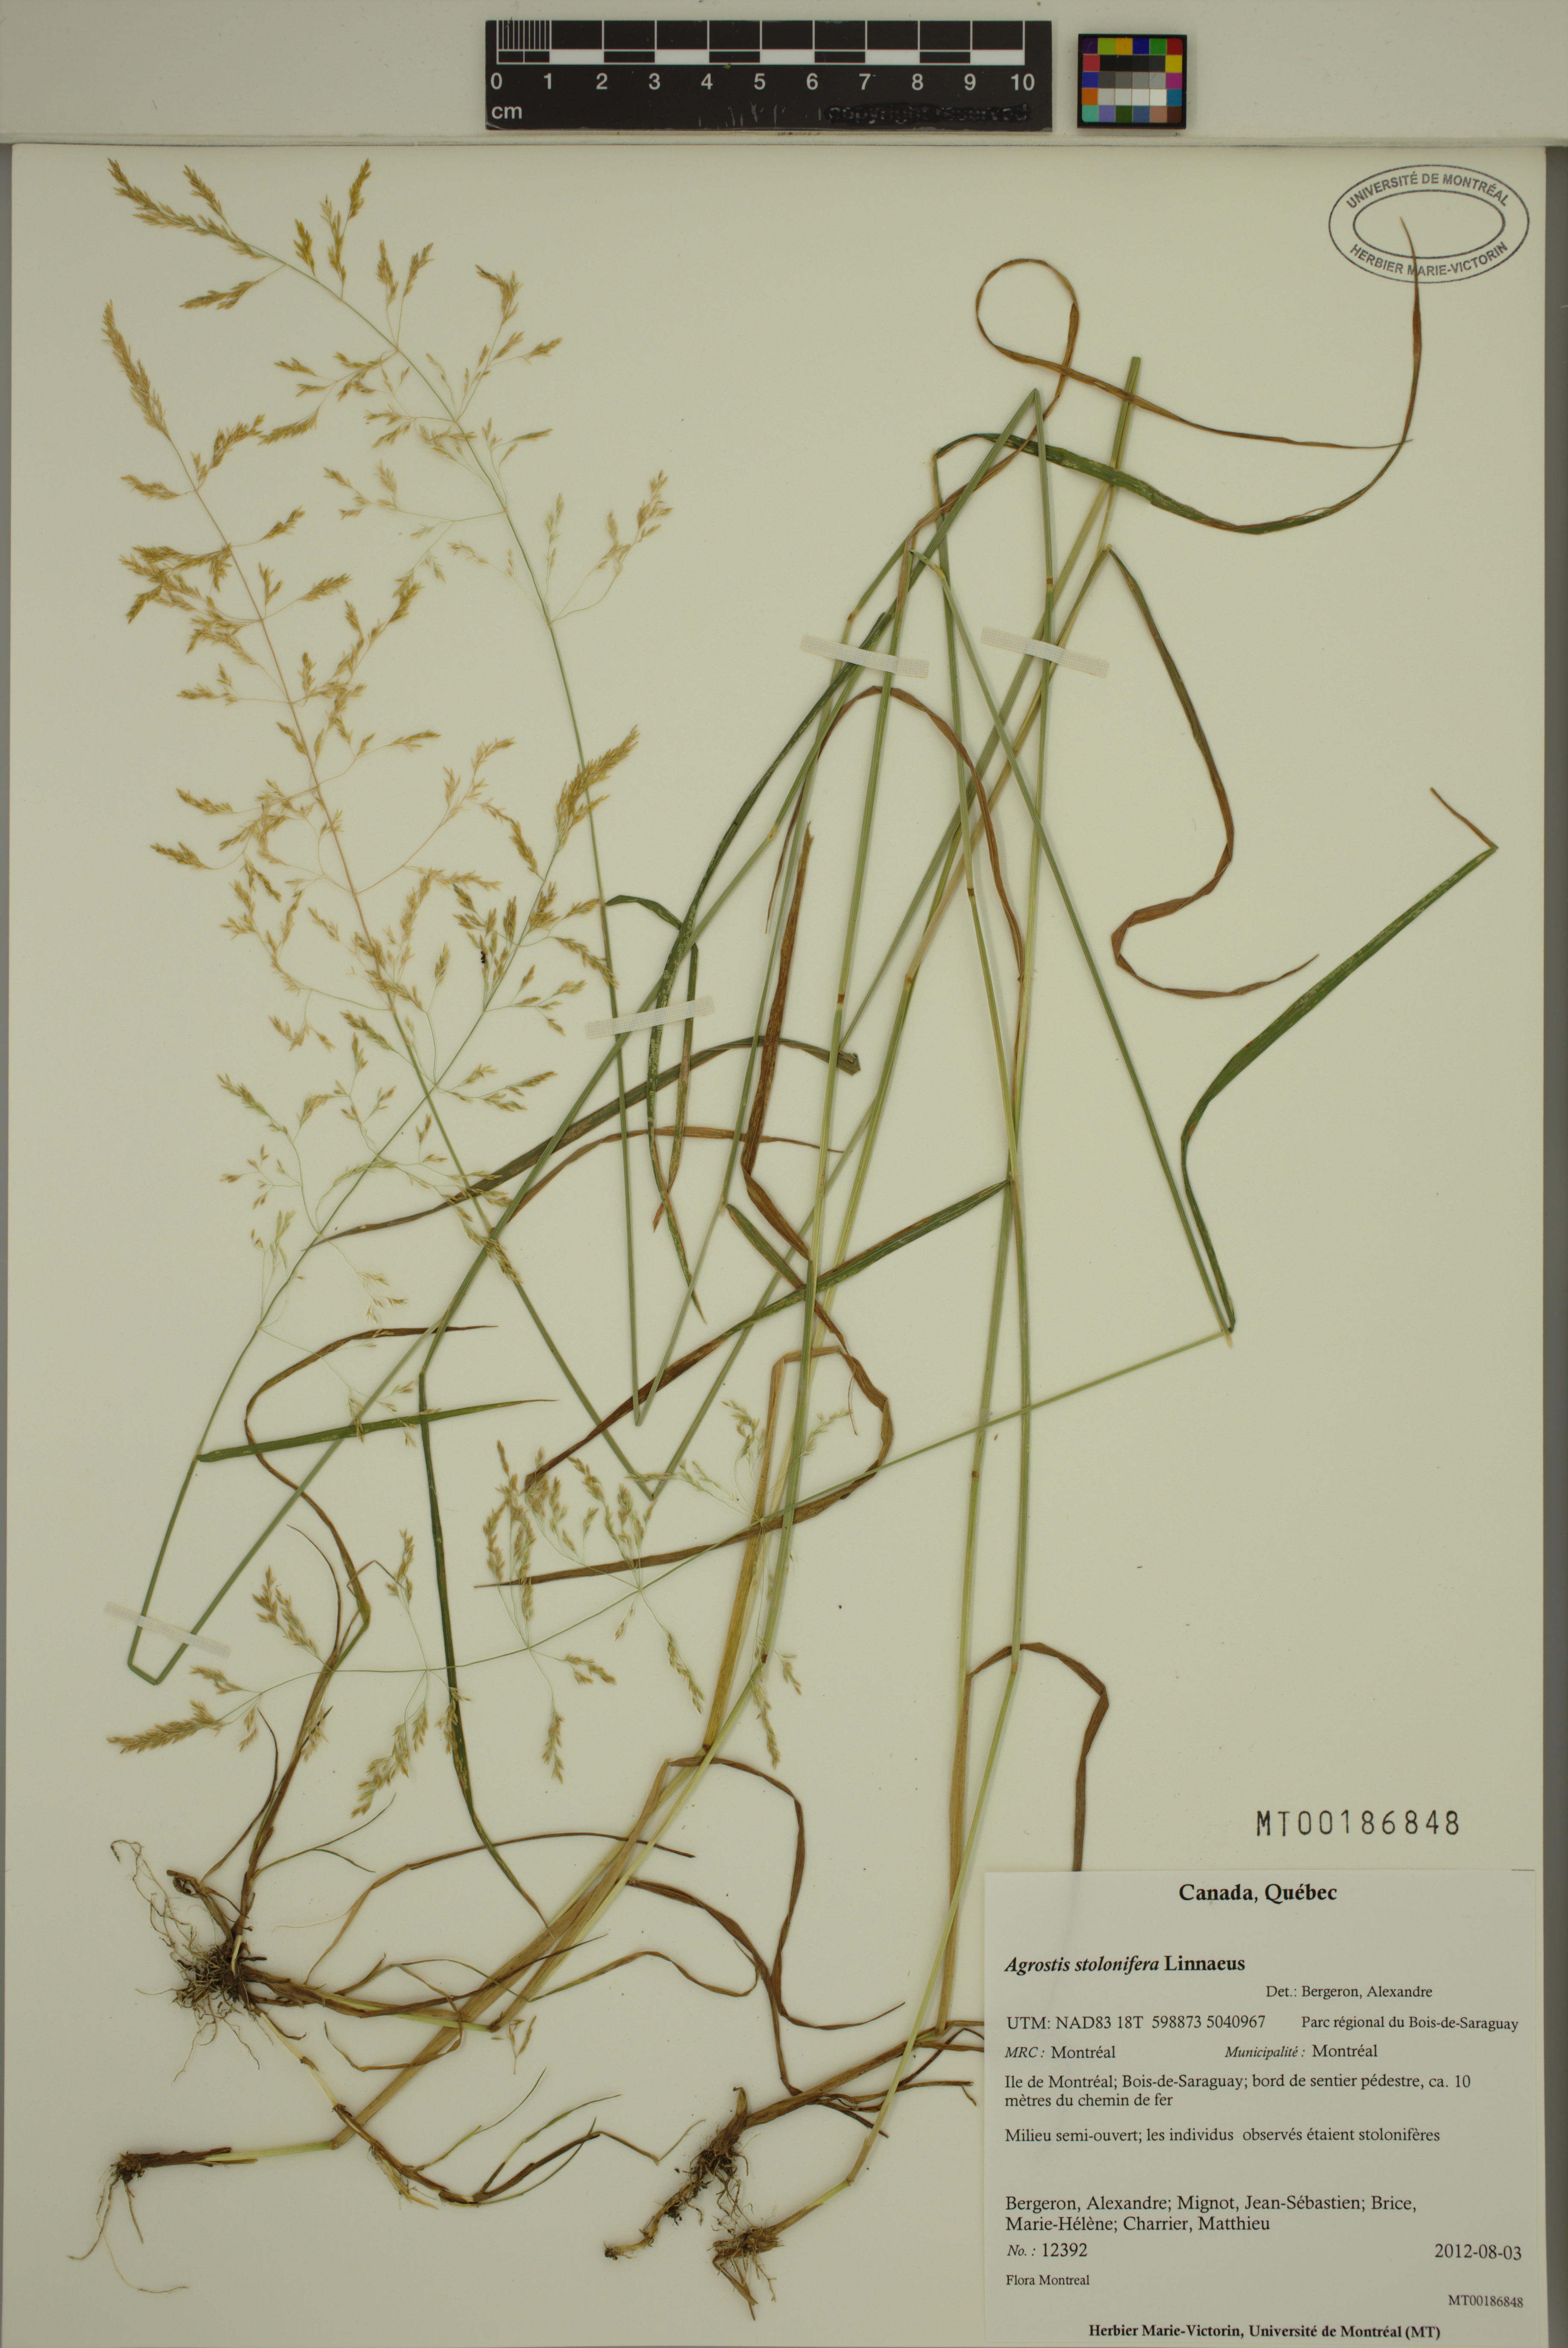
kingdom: Plantae
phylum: Tracheophyta
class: Liliopsida
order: Poales
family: Poaceae
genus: Agrostis
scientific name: Agrostis stolonifera
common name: Creeping bentgrass
